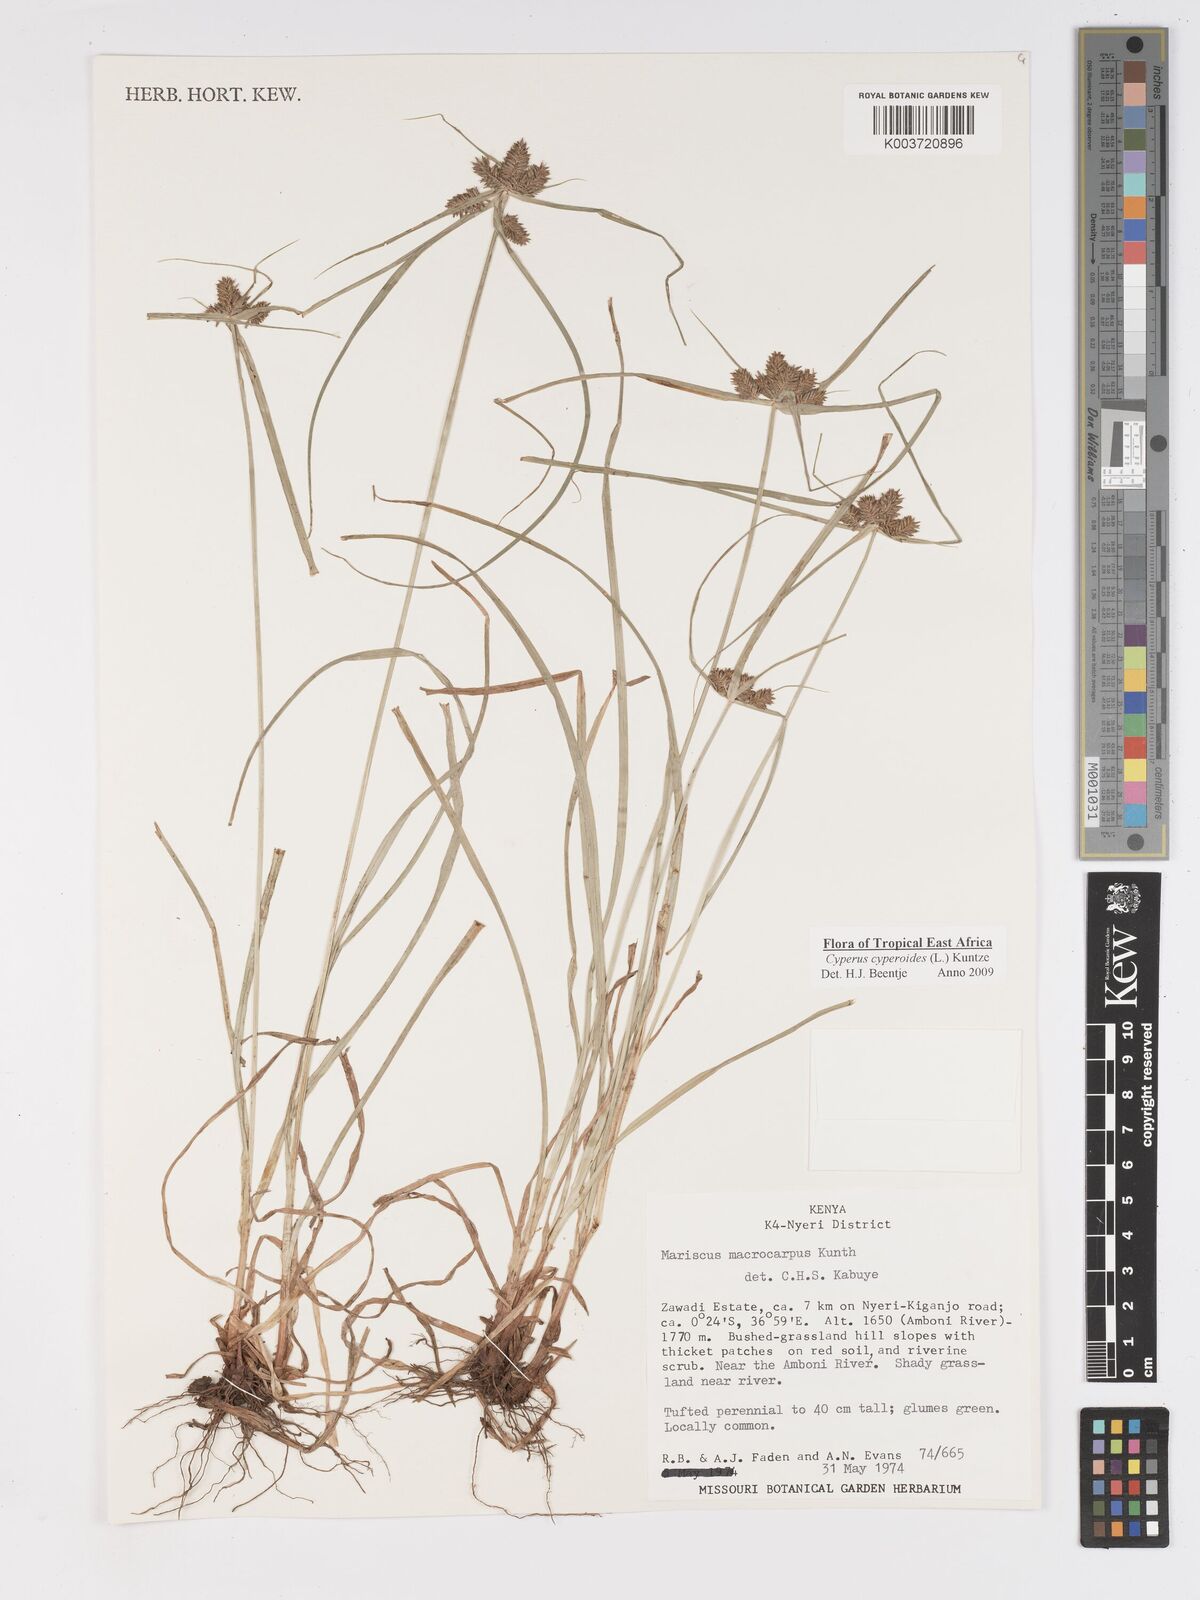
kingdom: Plantae
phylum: Tracheophyta
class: Liliopsida
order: Poales
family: Cyperaceae
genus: Cyperus
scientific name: Cyperus macrocarpus
